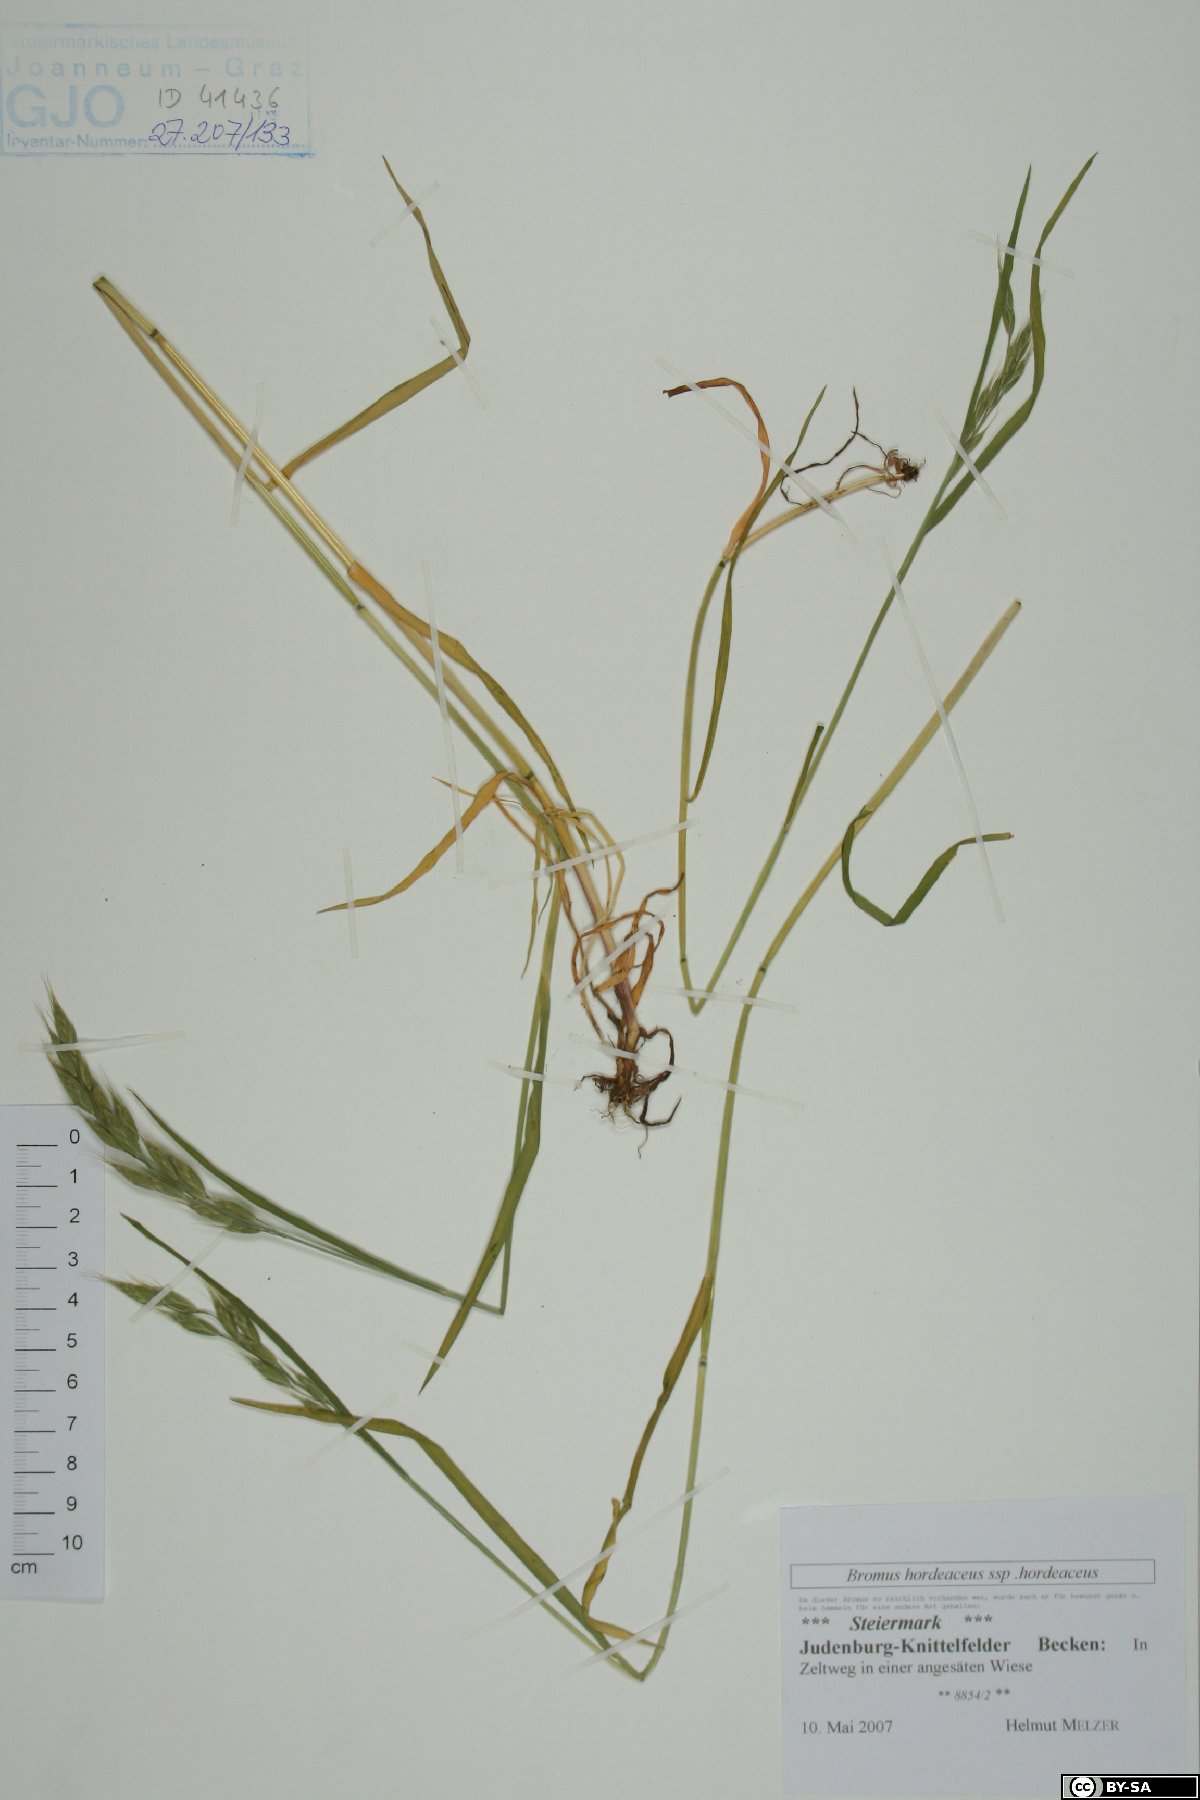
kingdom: Plantae
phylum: Tracheophyta
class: Liliopsida
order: Poales
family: Poaceae
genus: Bromus
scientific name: Bromus hordeaceus
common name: Soft brome
